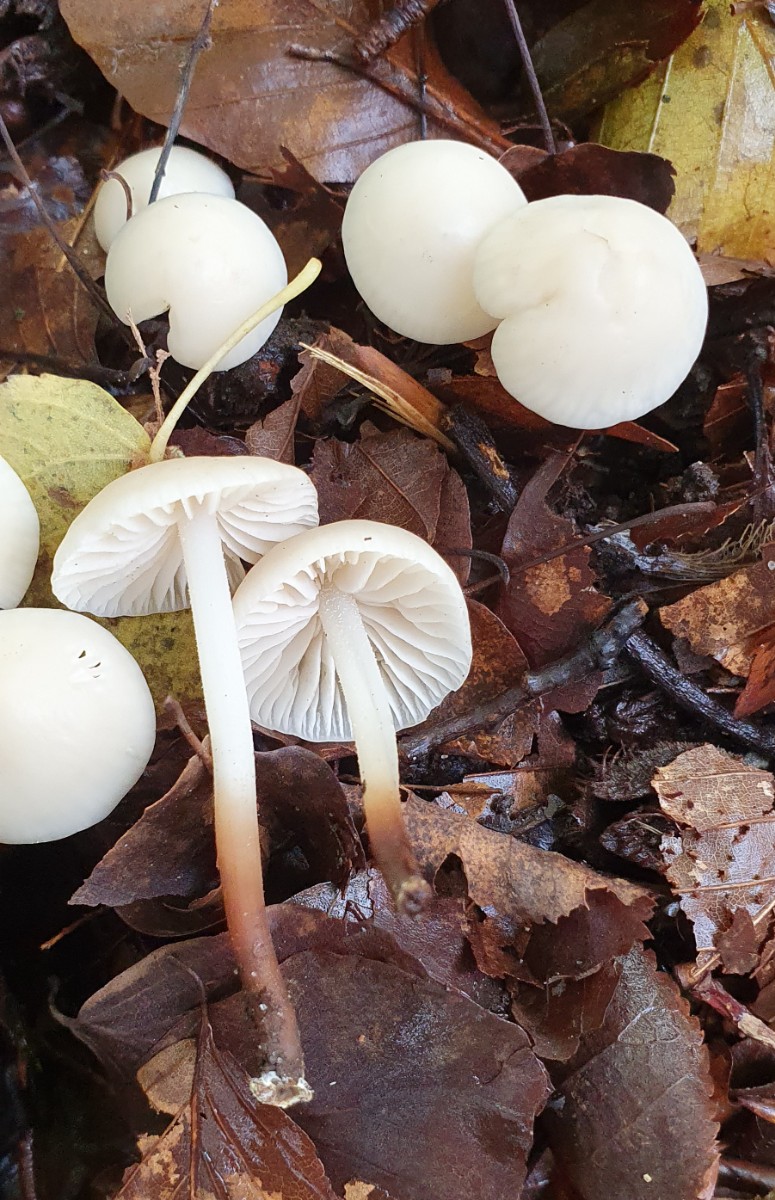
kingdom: Fungi
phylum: Basidiomycota
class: Agaricomycetes
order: Agaricales
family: Marasmiaceae
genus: Marasmius
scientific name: Marasmius wynneae
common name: hvælvet bruskhat
